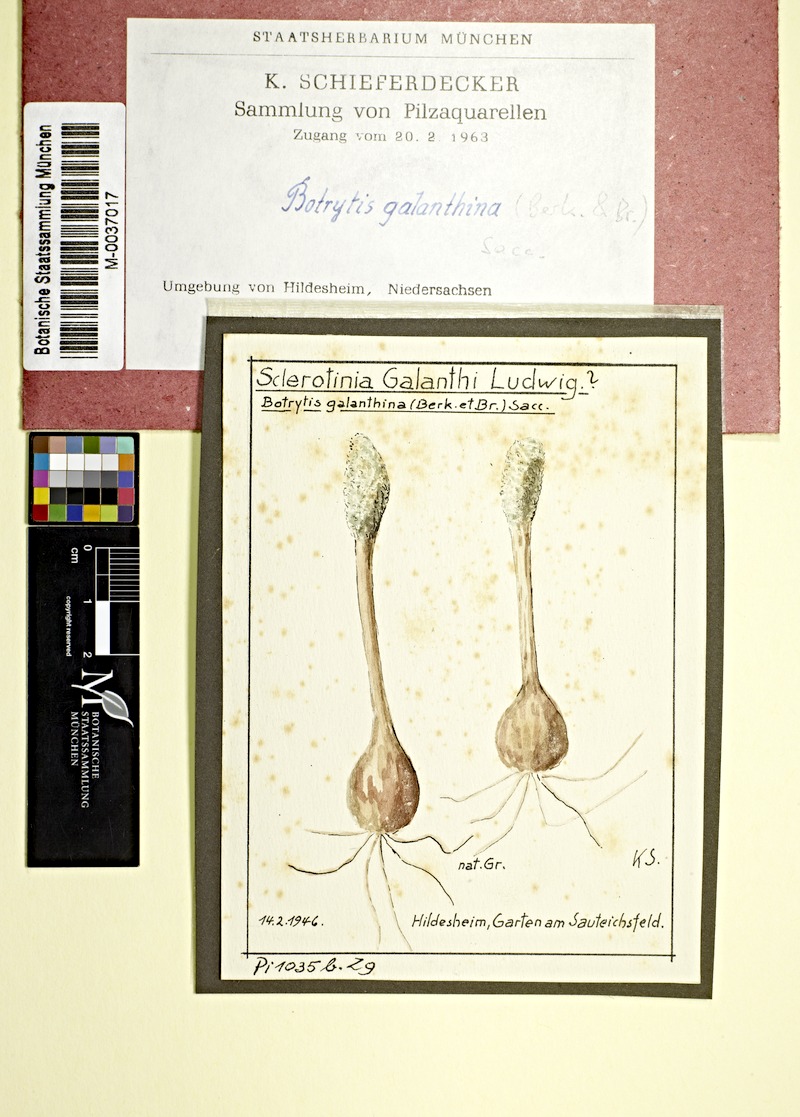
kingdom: Fungi
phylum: Ascomycota
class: Leotiomycetes
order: Helotiales
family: Sclerotiniaceae
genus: Botrytis
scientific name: Botrytis galanthina
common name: Snowdrop grey mould
